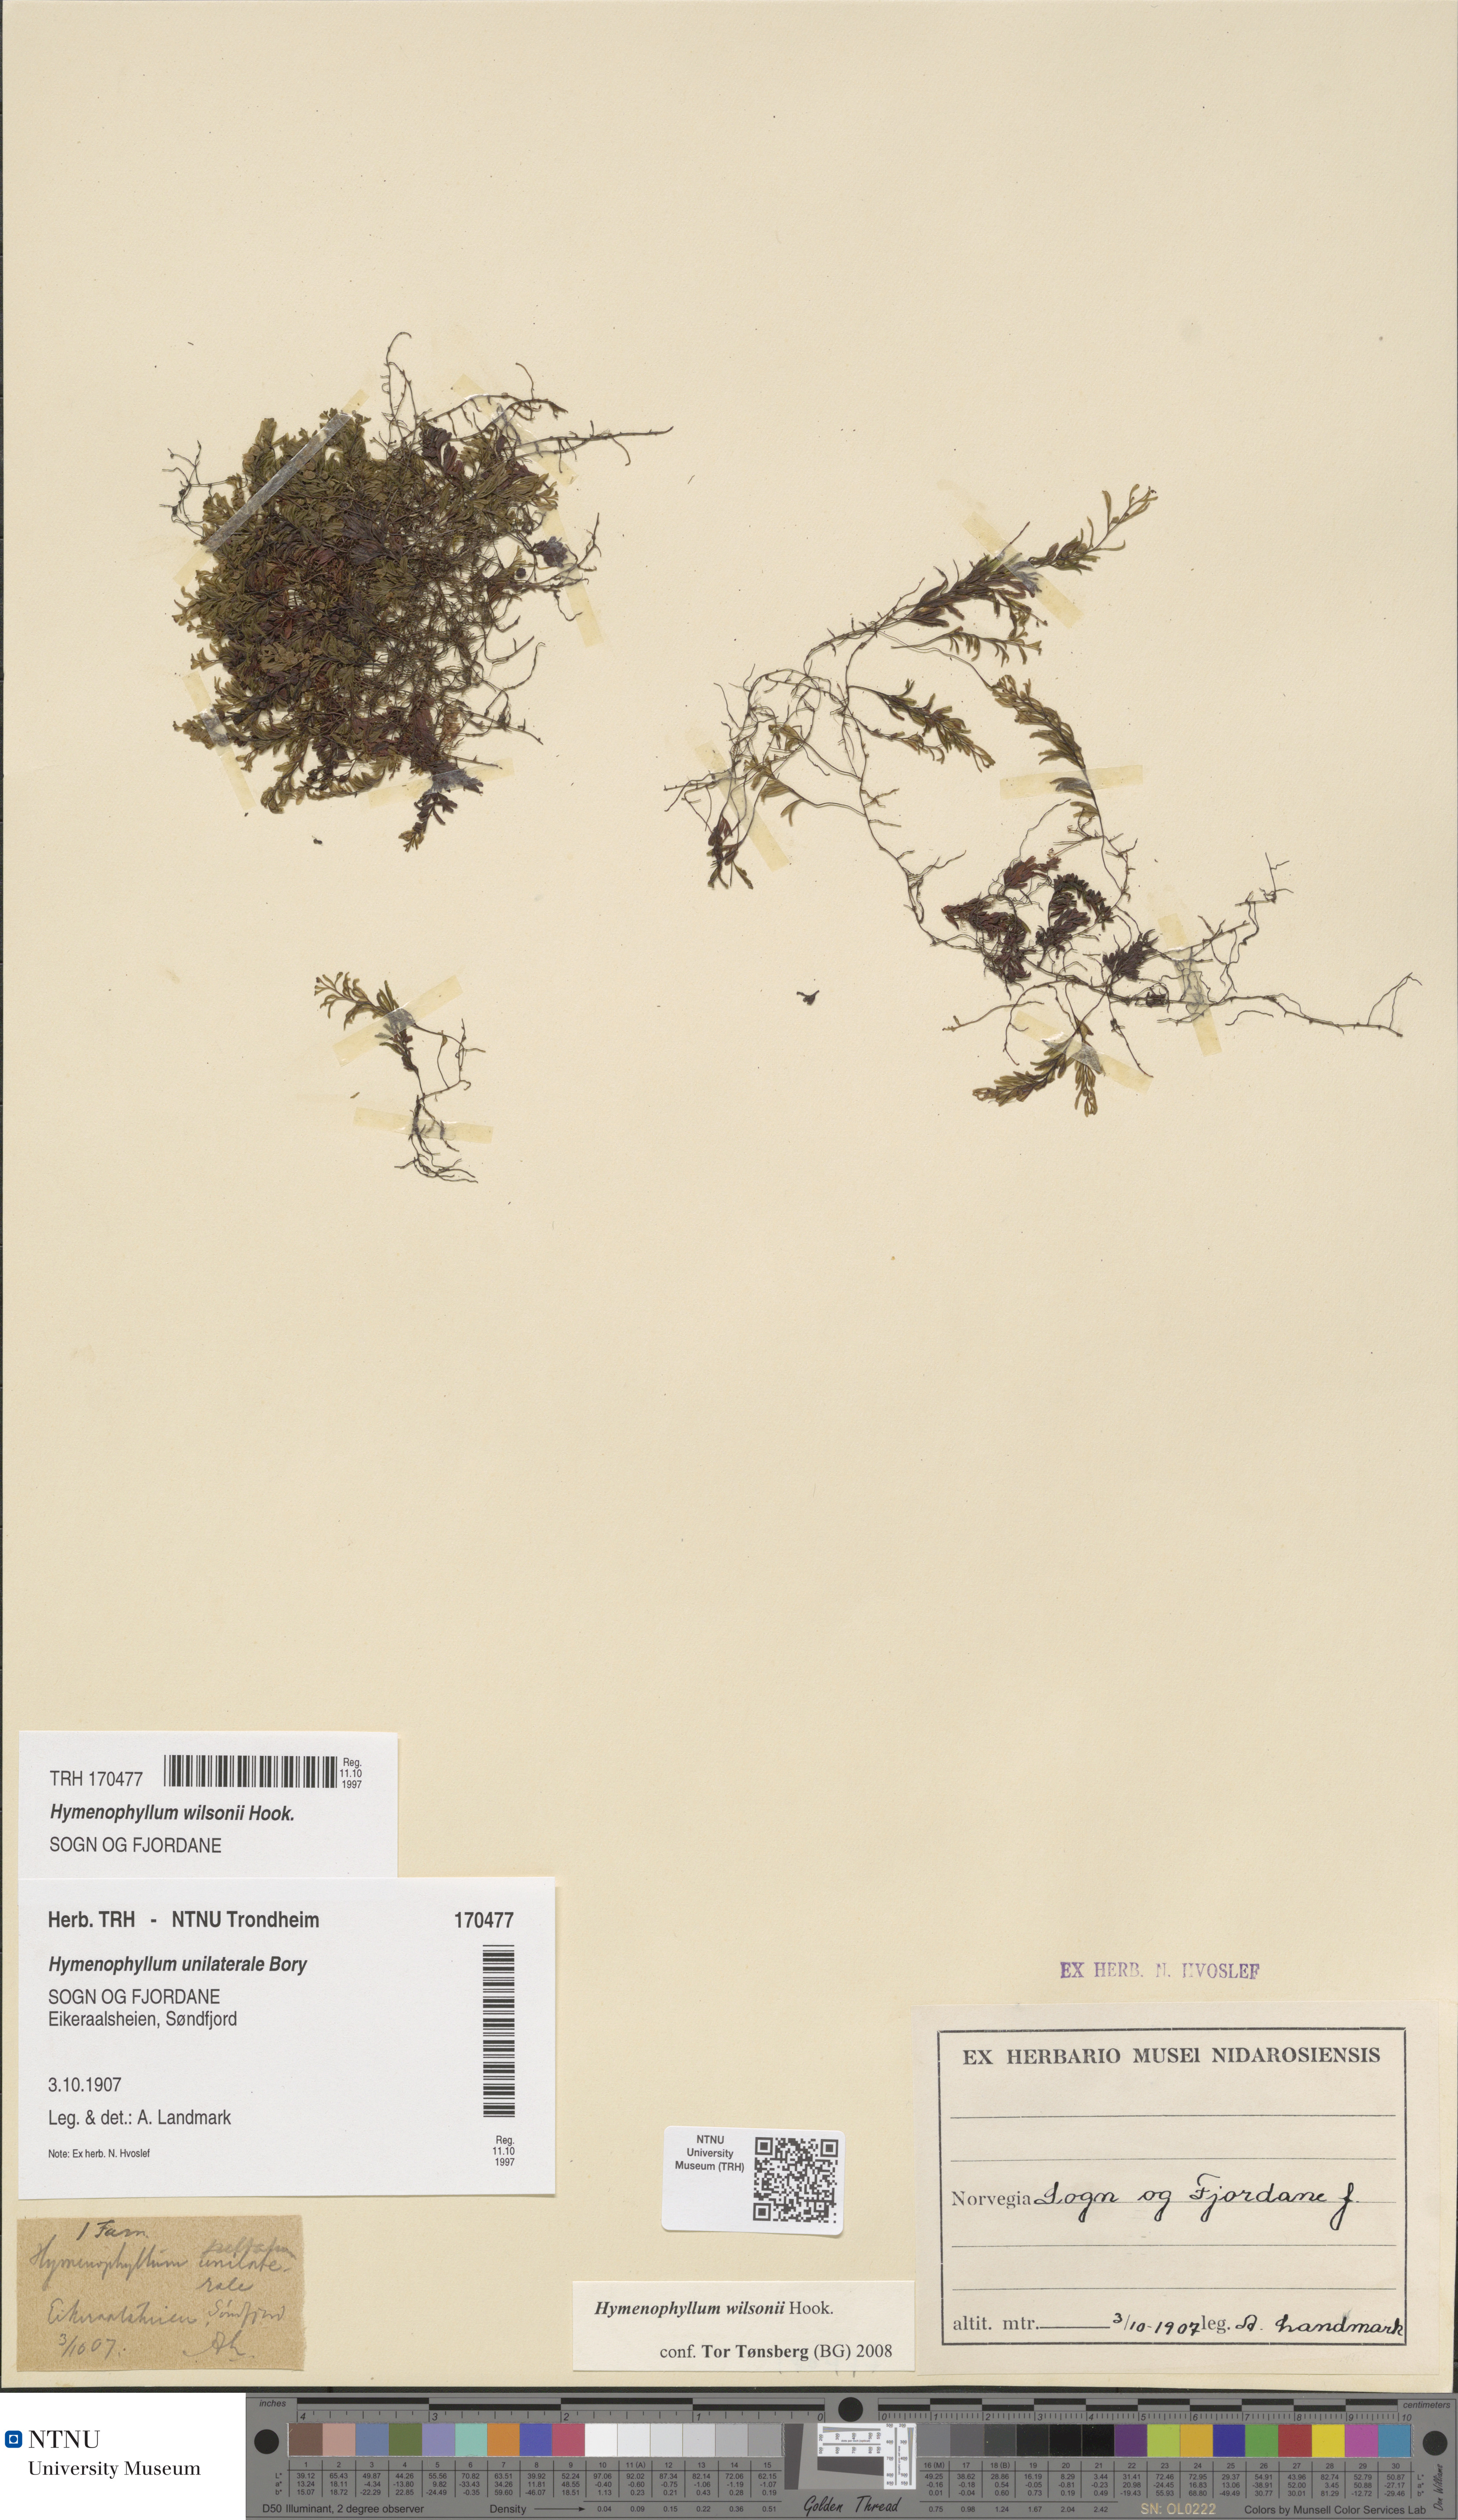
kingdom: Plantae
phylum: Tracheophyta
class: Polypodiopsida
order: Hymenophyllales
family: Hymenophyllaceae
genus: Hymenophyllum
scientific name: Hymenophyllum peltatum
